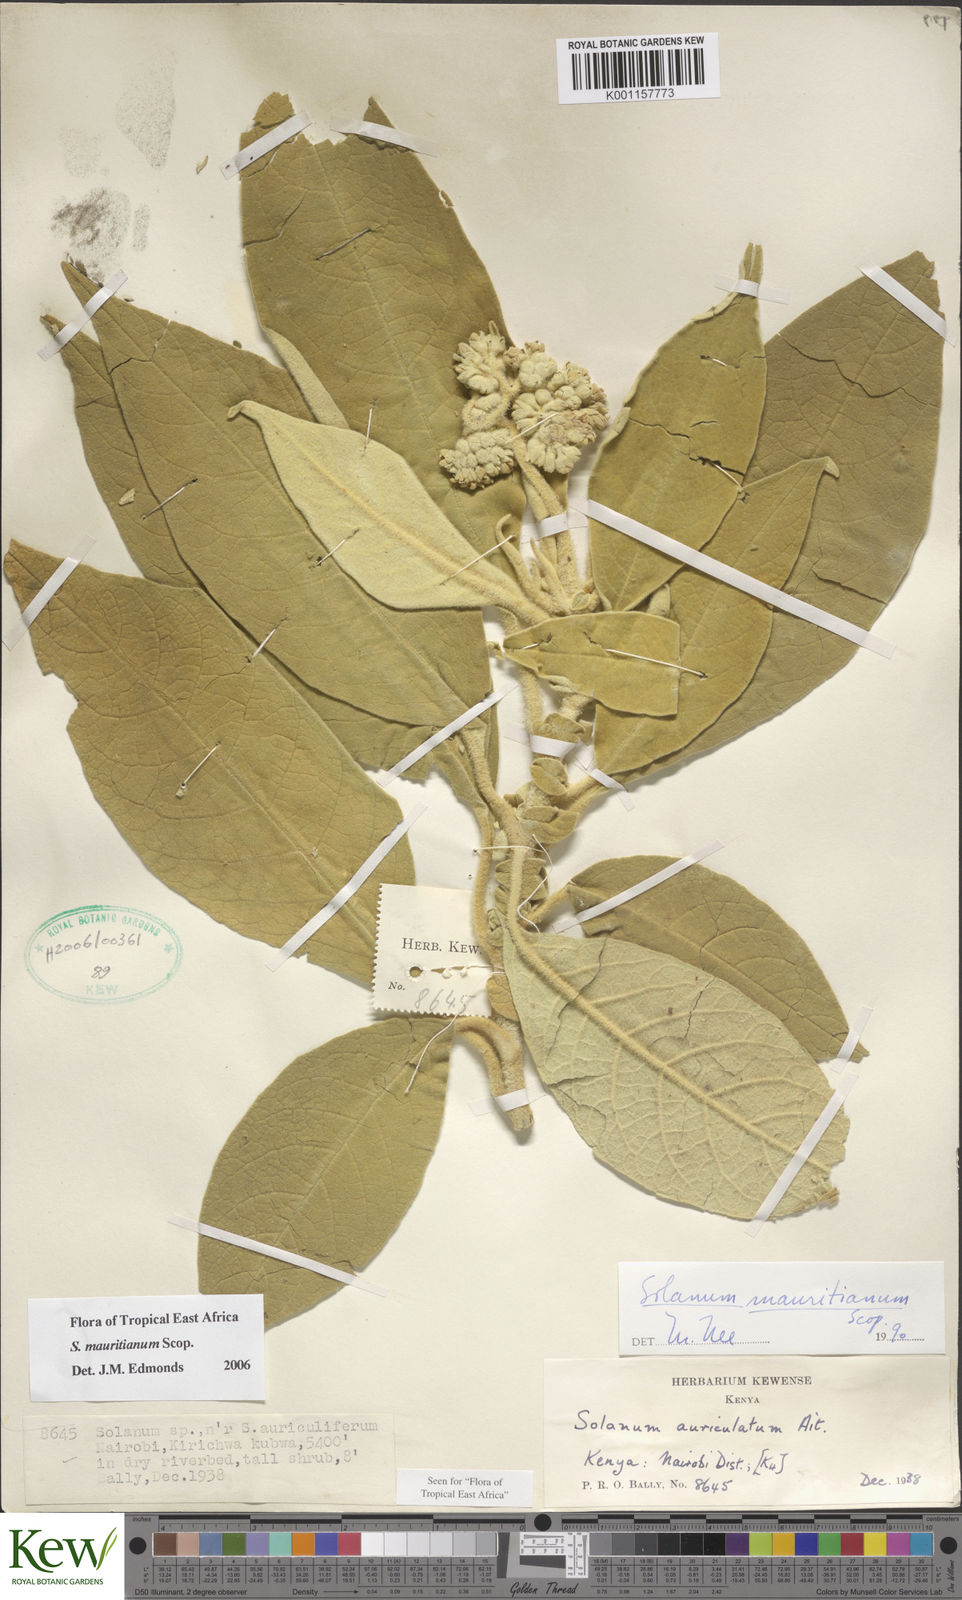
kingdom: Plantae
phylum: Tracheophyta
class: Magnoliopsida
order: Solanales
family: Solanaceae
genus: Solanum
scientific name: Solanum mauritianum
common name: Earleaf nightshade
